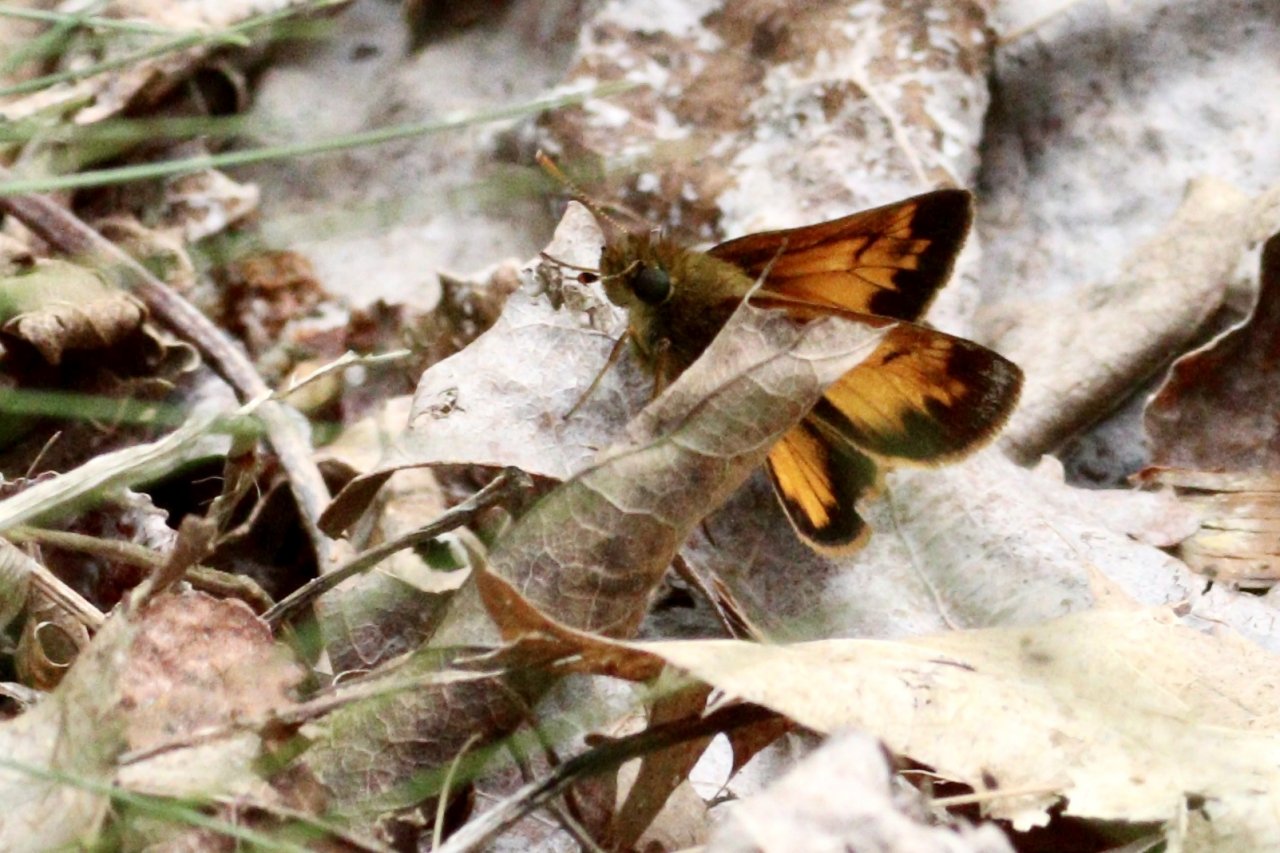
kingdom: Animalia
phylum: Arthropoda
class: Insecta
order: Lepidoptera
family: Hesperiidae
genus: Lon
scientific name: Lon hobomok
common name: Hobomok Skipper
